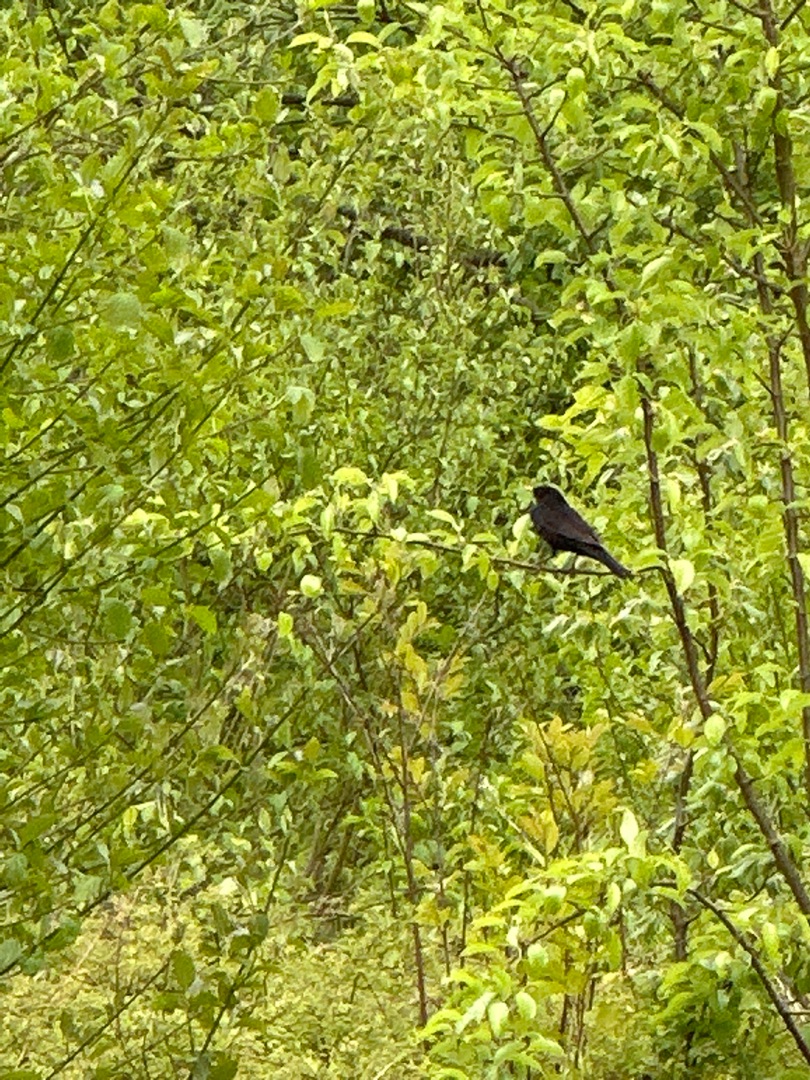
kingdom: Animalia
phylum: Chordata
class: Aves
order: Passeriformes
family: Turdidae
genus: Turdus
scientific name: Turdus merula
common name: Solsort
